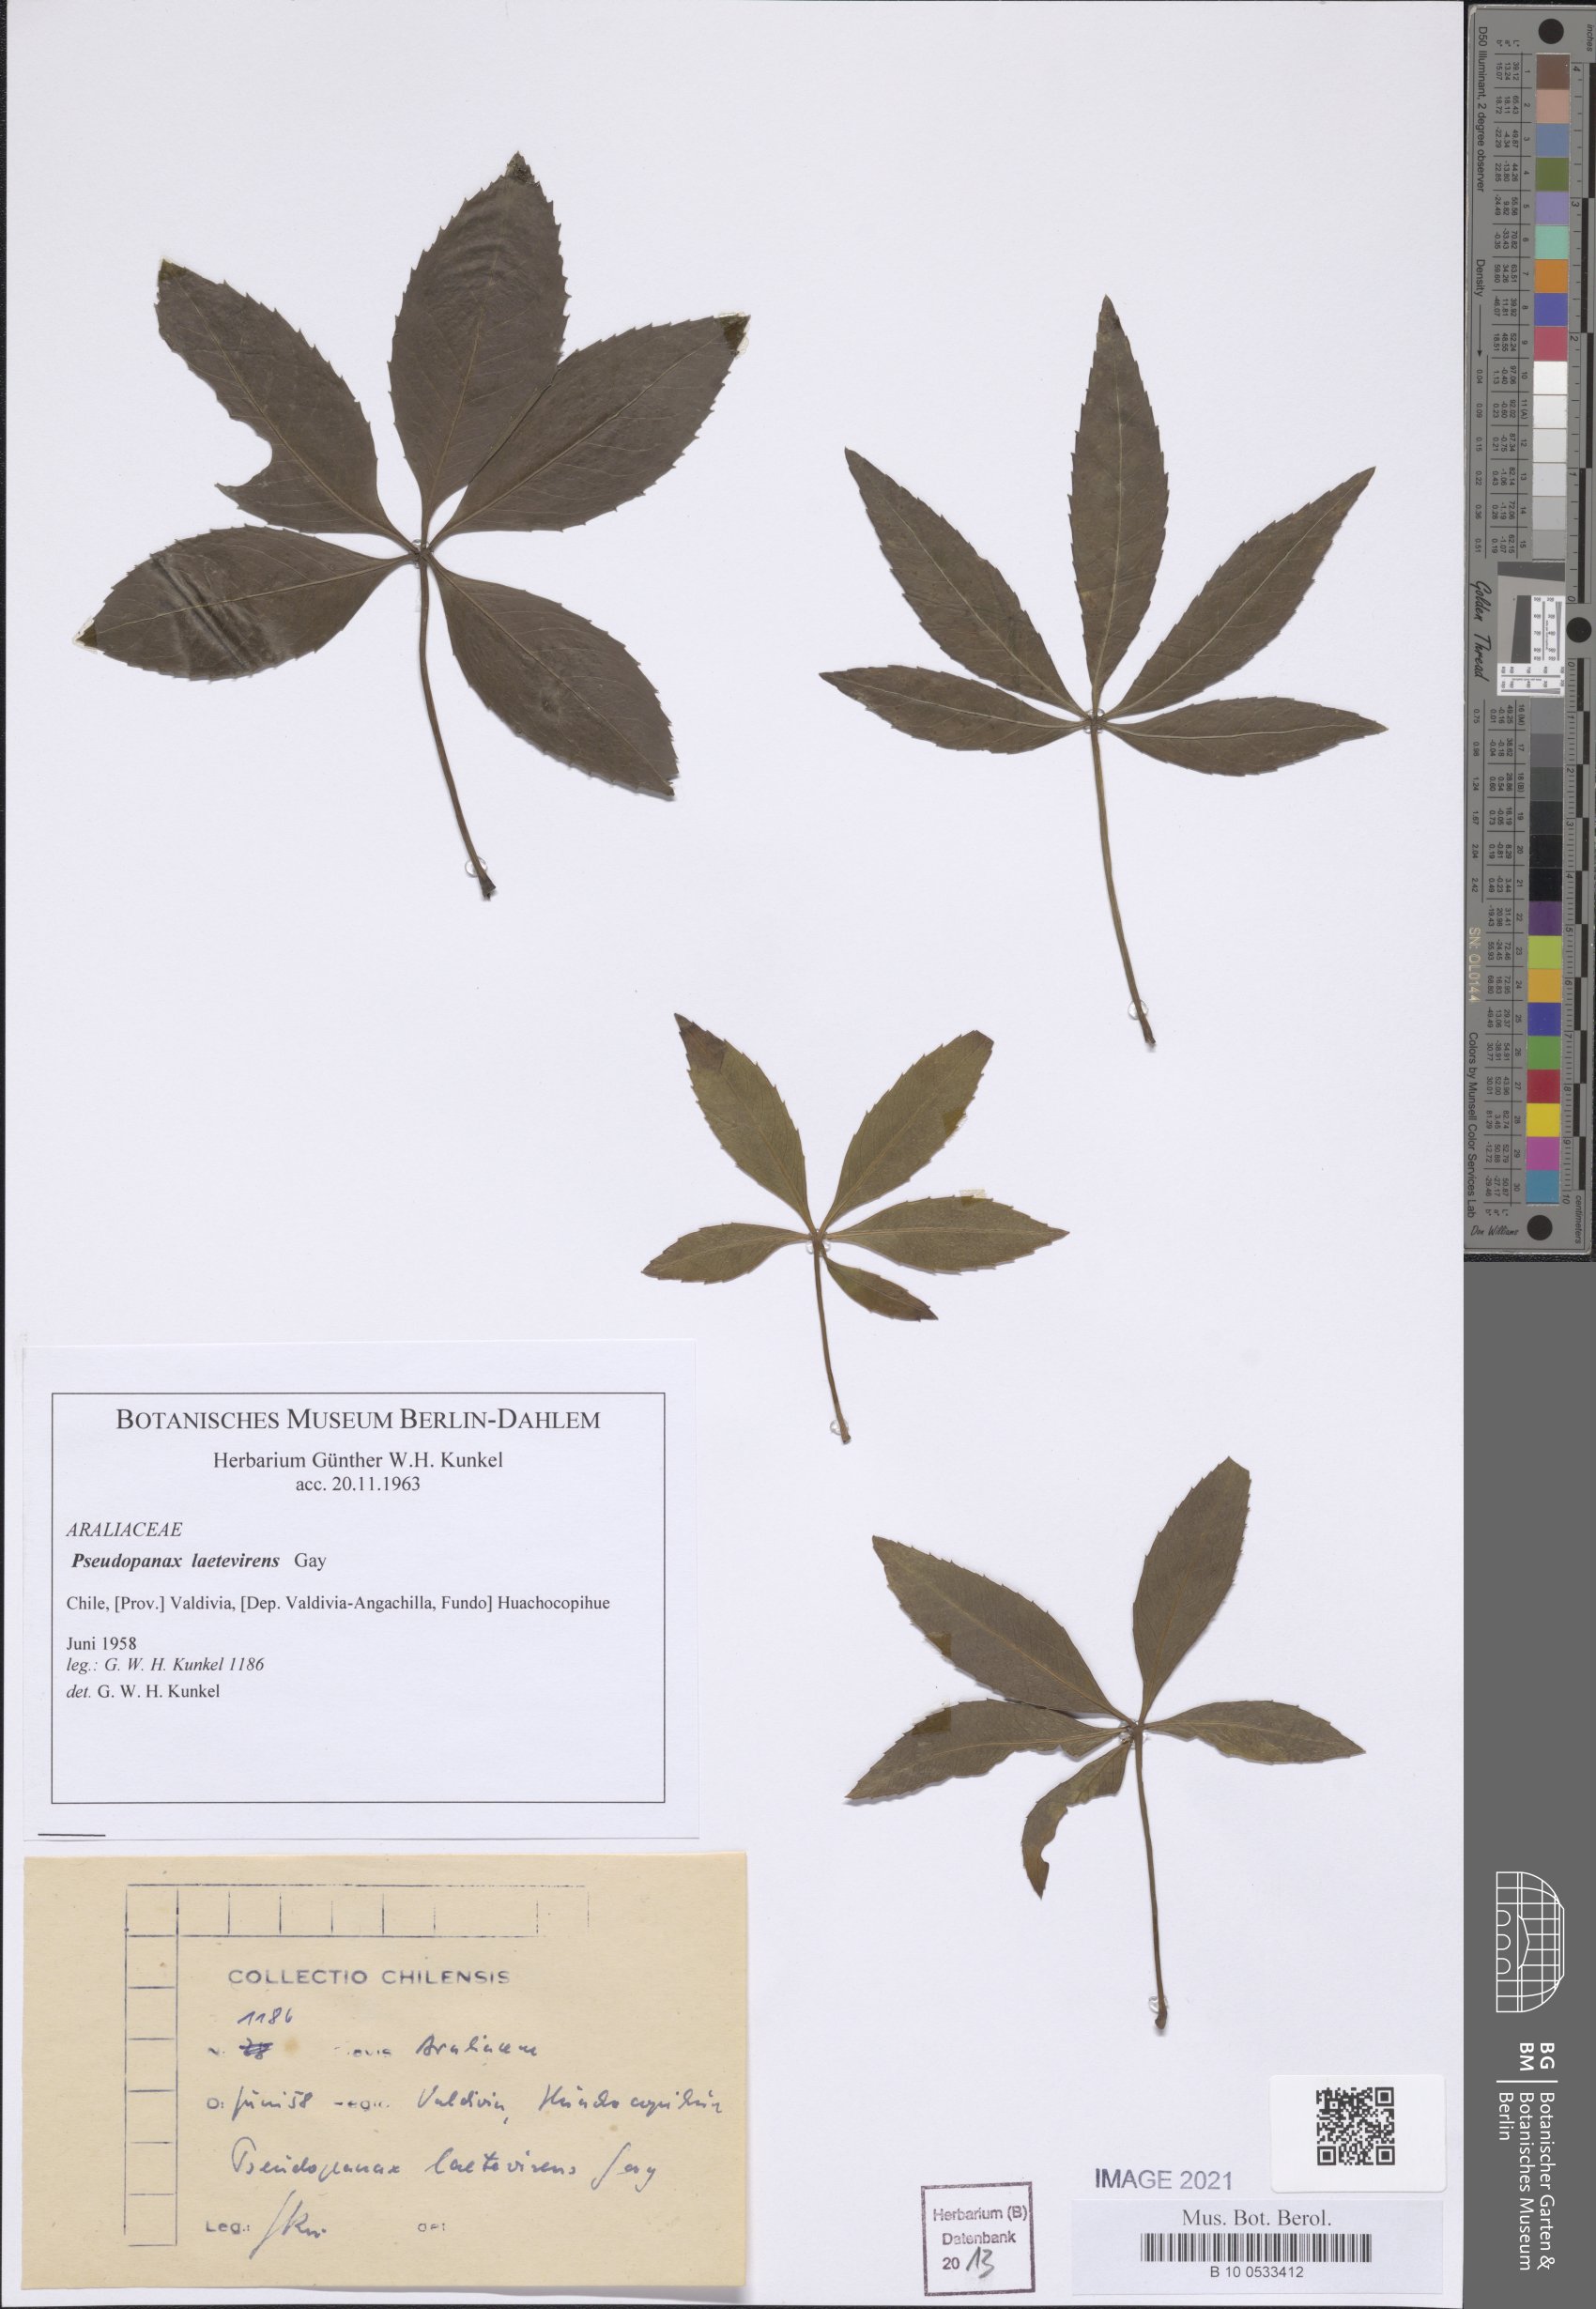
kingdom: Plantae
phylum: Tracheophyta
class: Magnoliopsida
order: Apiales
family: Araliaceae
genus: Raukaua
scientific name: Raukaua laetevirens
